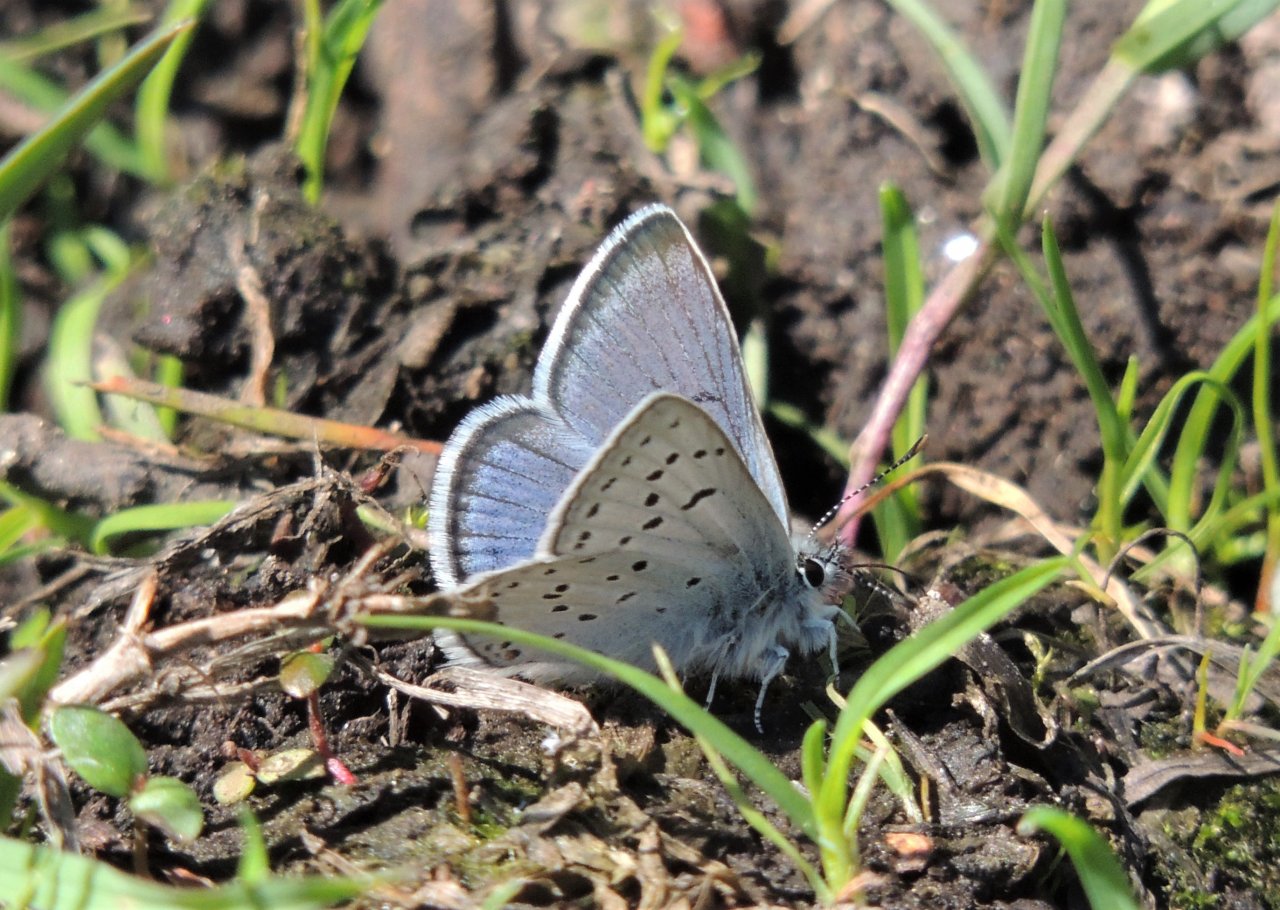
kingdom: Animalia
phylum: Arthropoda
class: Insecta
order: Lepidoptera
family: Lycaenidae
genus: Plebejus
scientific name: Plebejus saepiolus
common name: Greenish Blue
